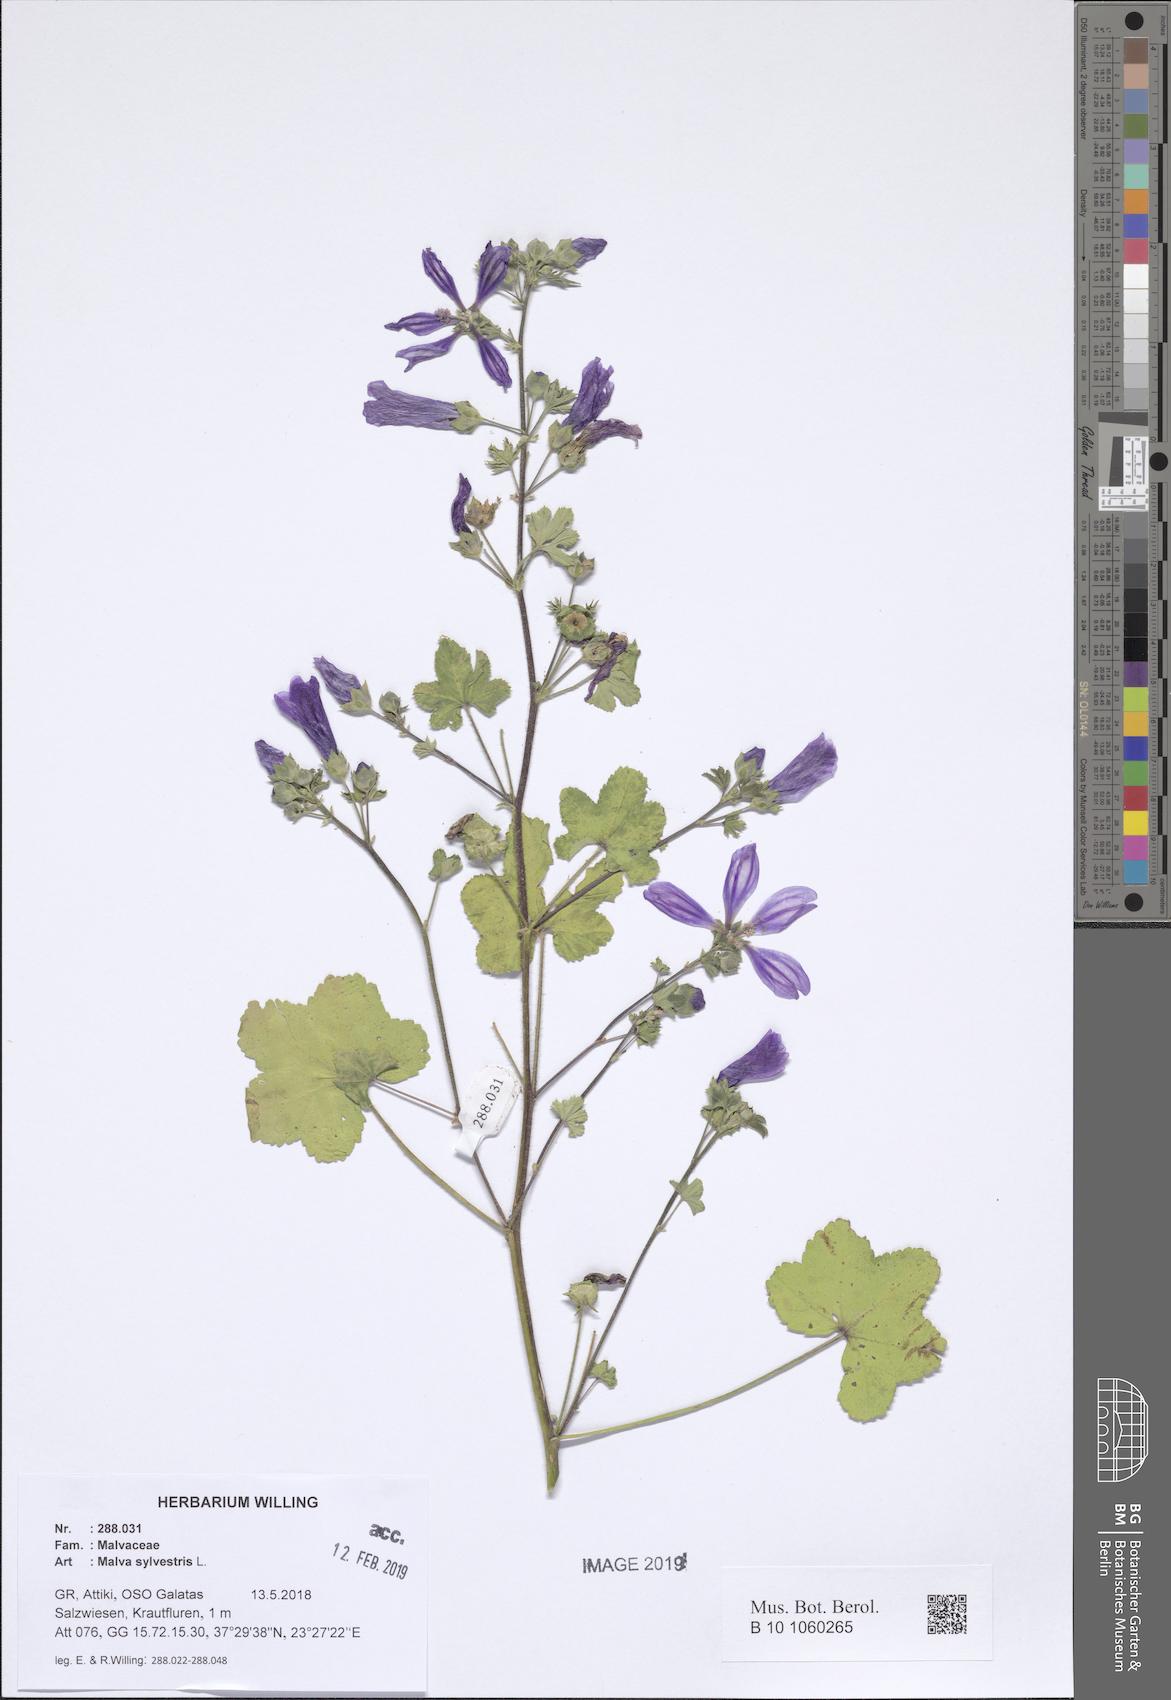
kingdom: Plantae
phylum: Tracheophyta
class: Magnoliopsida
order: Malvales
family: Malvaceae
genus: Malva
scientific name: Malva sylvestris
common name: Common mallow
